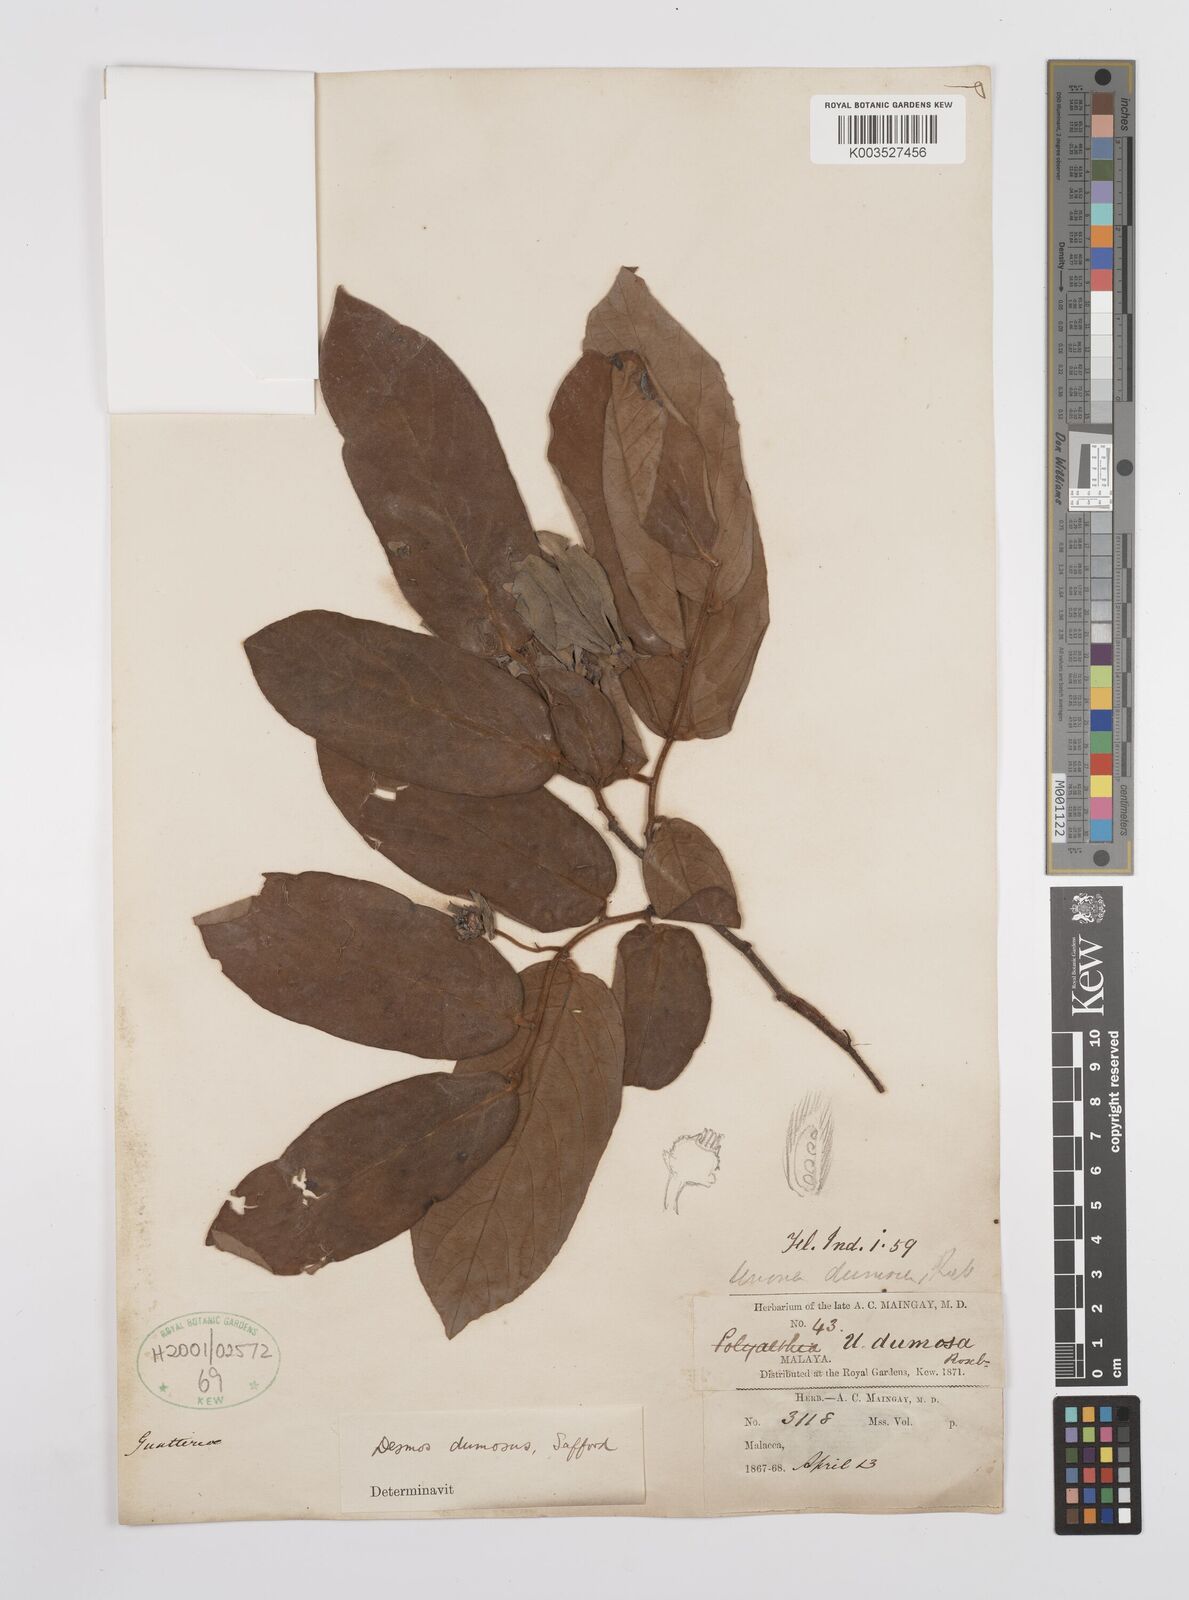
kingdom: Plantae
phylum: Tracheophyta
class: Magnoliopsida
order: Magnoliales
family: Annonaceae
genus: Desmos
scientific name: Desmos dumosus
